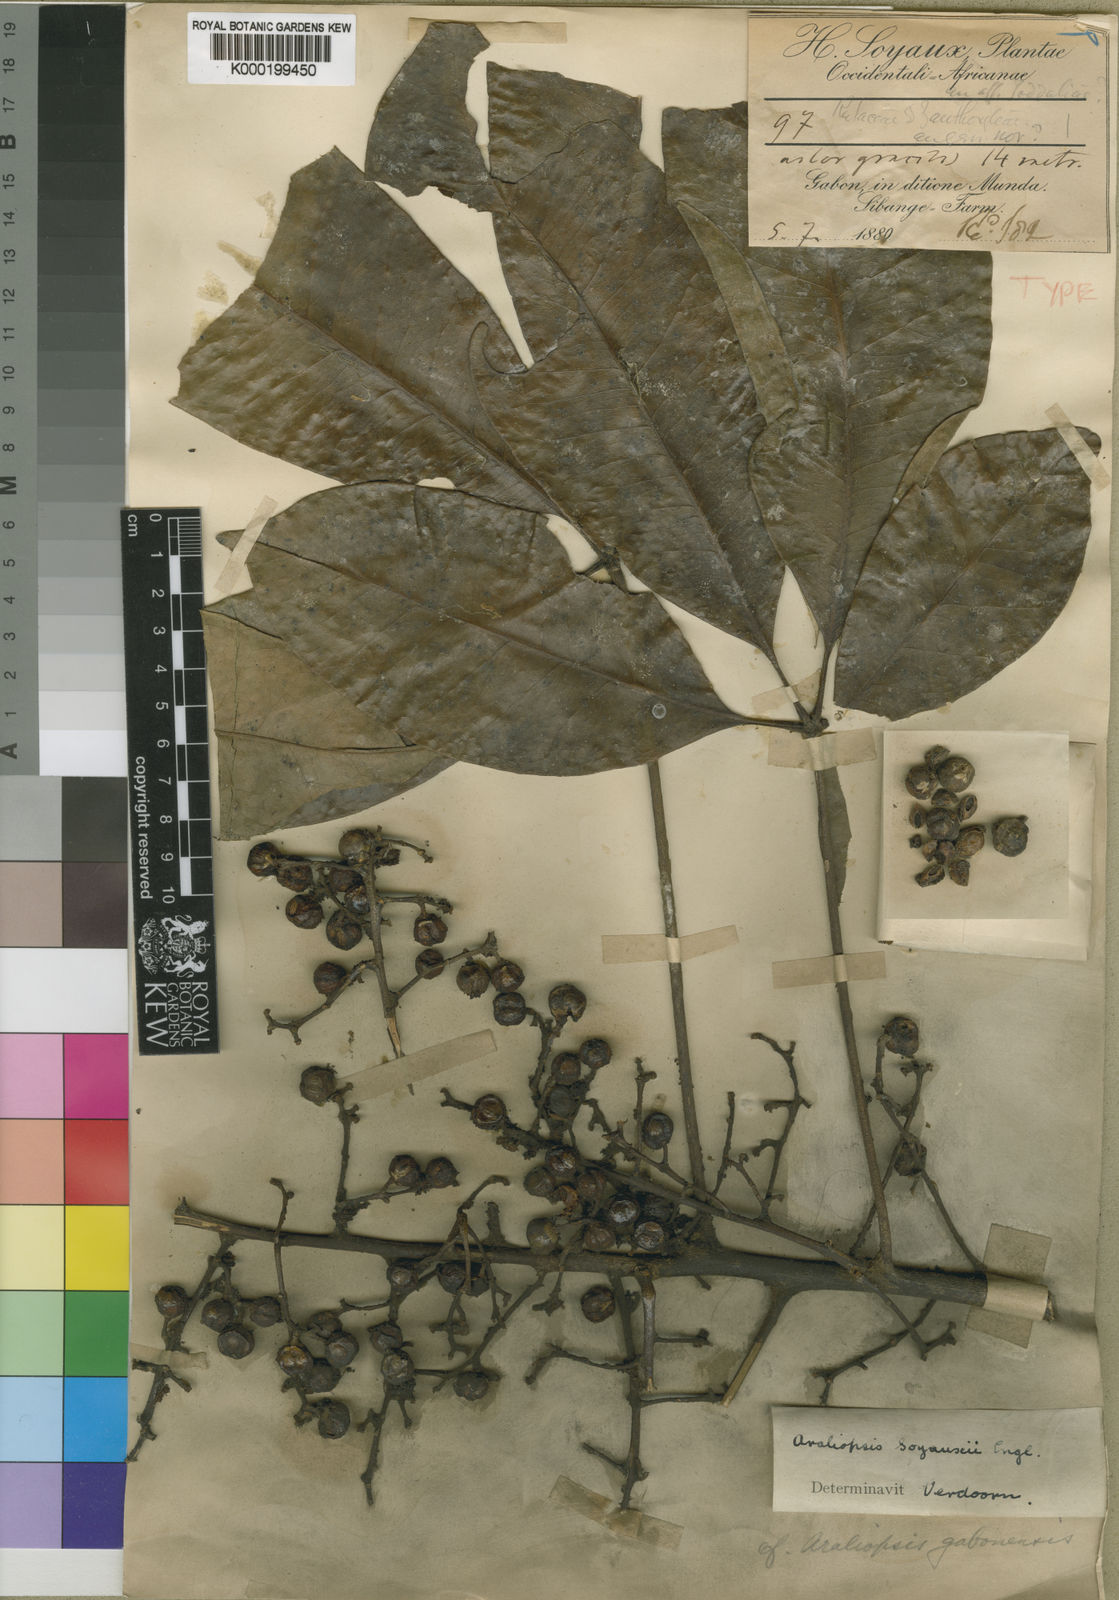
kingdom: Plantae
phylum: Tracheophyta
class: Magnoliopsida
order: Sapindales
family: Rutaceae
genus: Vepris
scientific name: Vepris soyauxii
